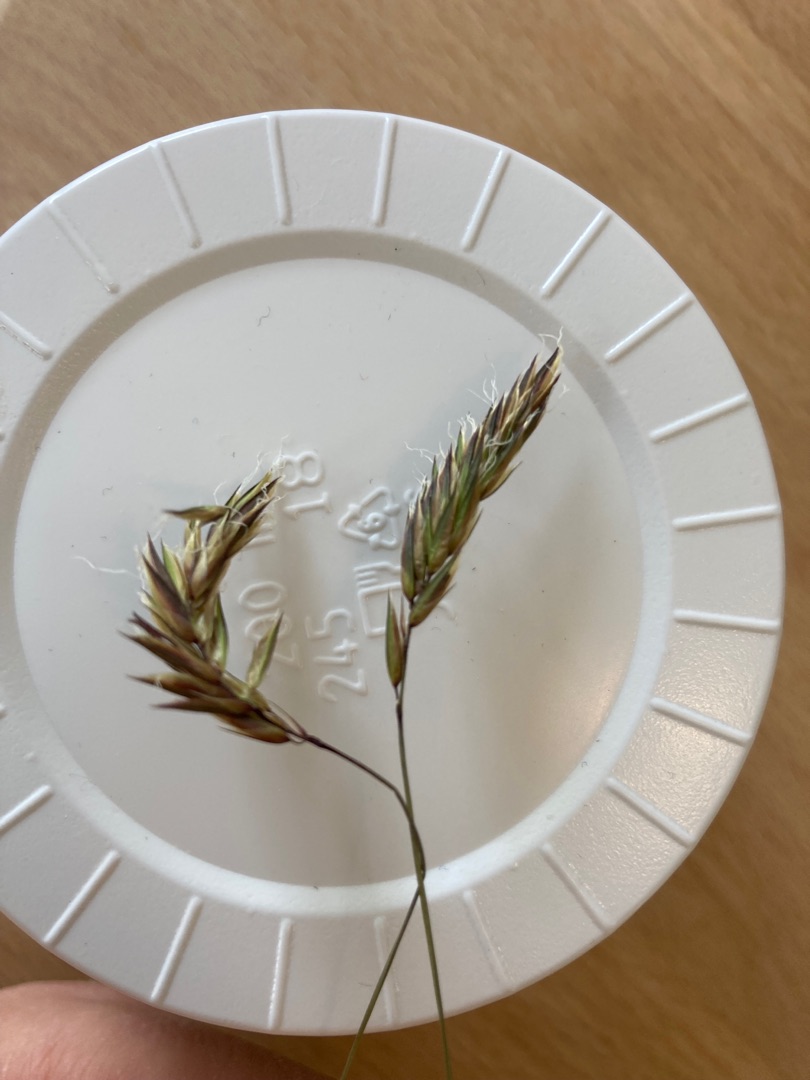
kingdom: Plantae
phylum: Tracheophyta
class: Liliopsida
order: Poales
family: Poaceae
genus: Anthoxanthum
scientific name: Anthoxanthum odoratum
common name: Vellugtende gulaks
